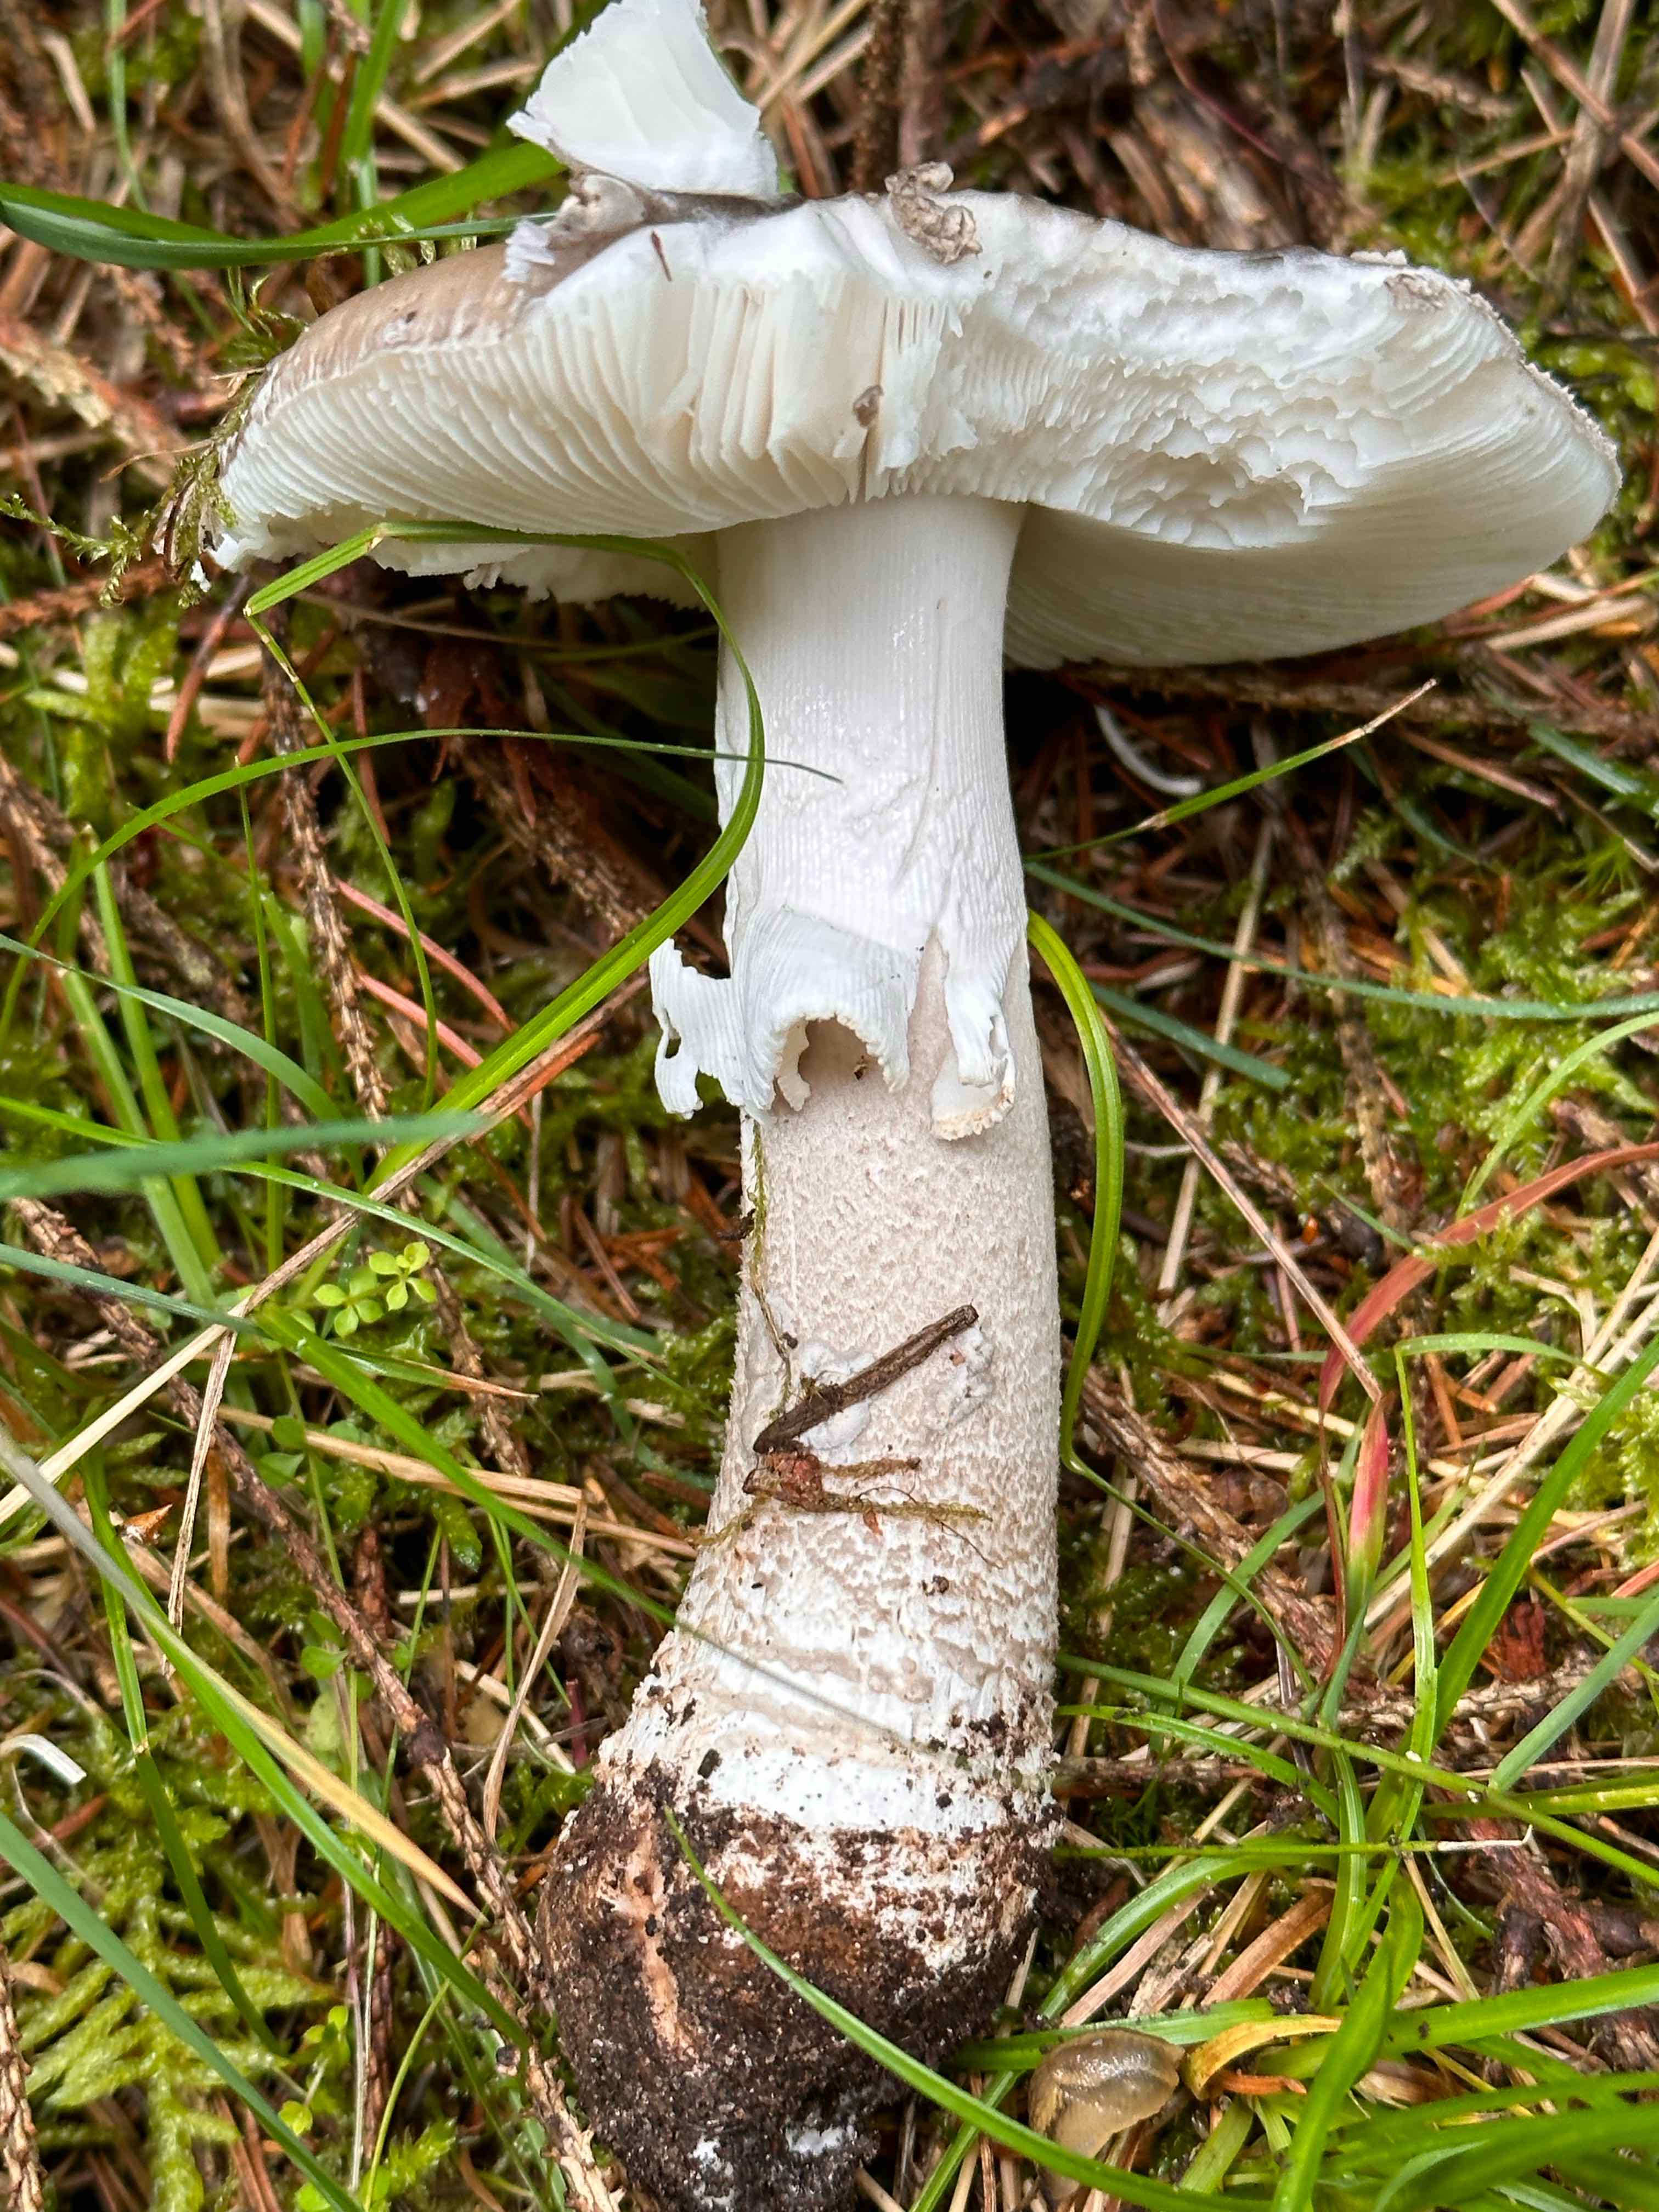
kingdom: Fungi
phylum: Basidiomycota
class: Agaricomycetes
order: Agaricales
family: Amanitaceae
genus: Amanita
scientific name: Amanita
